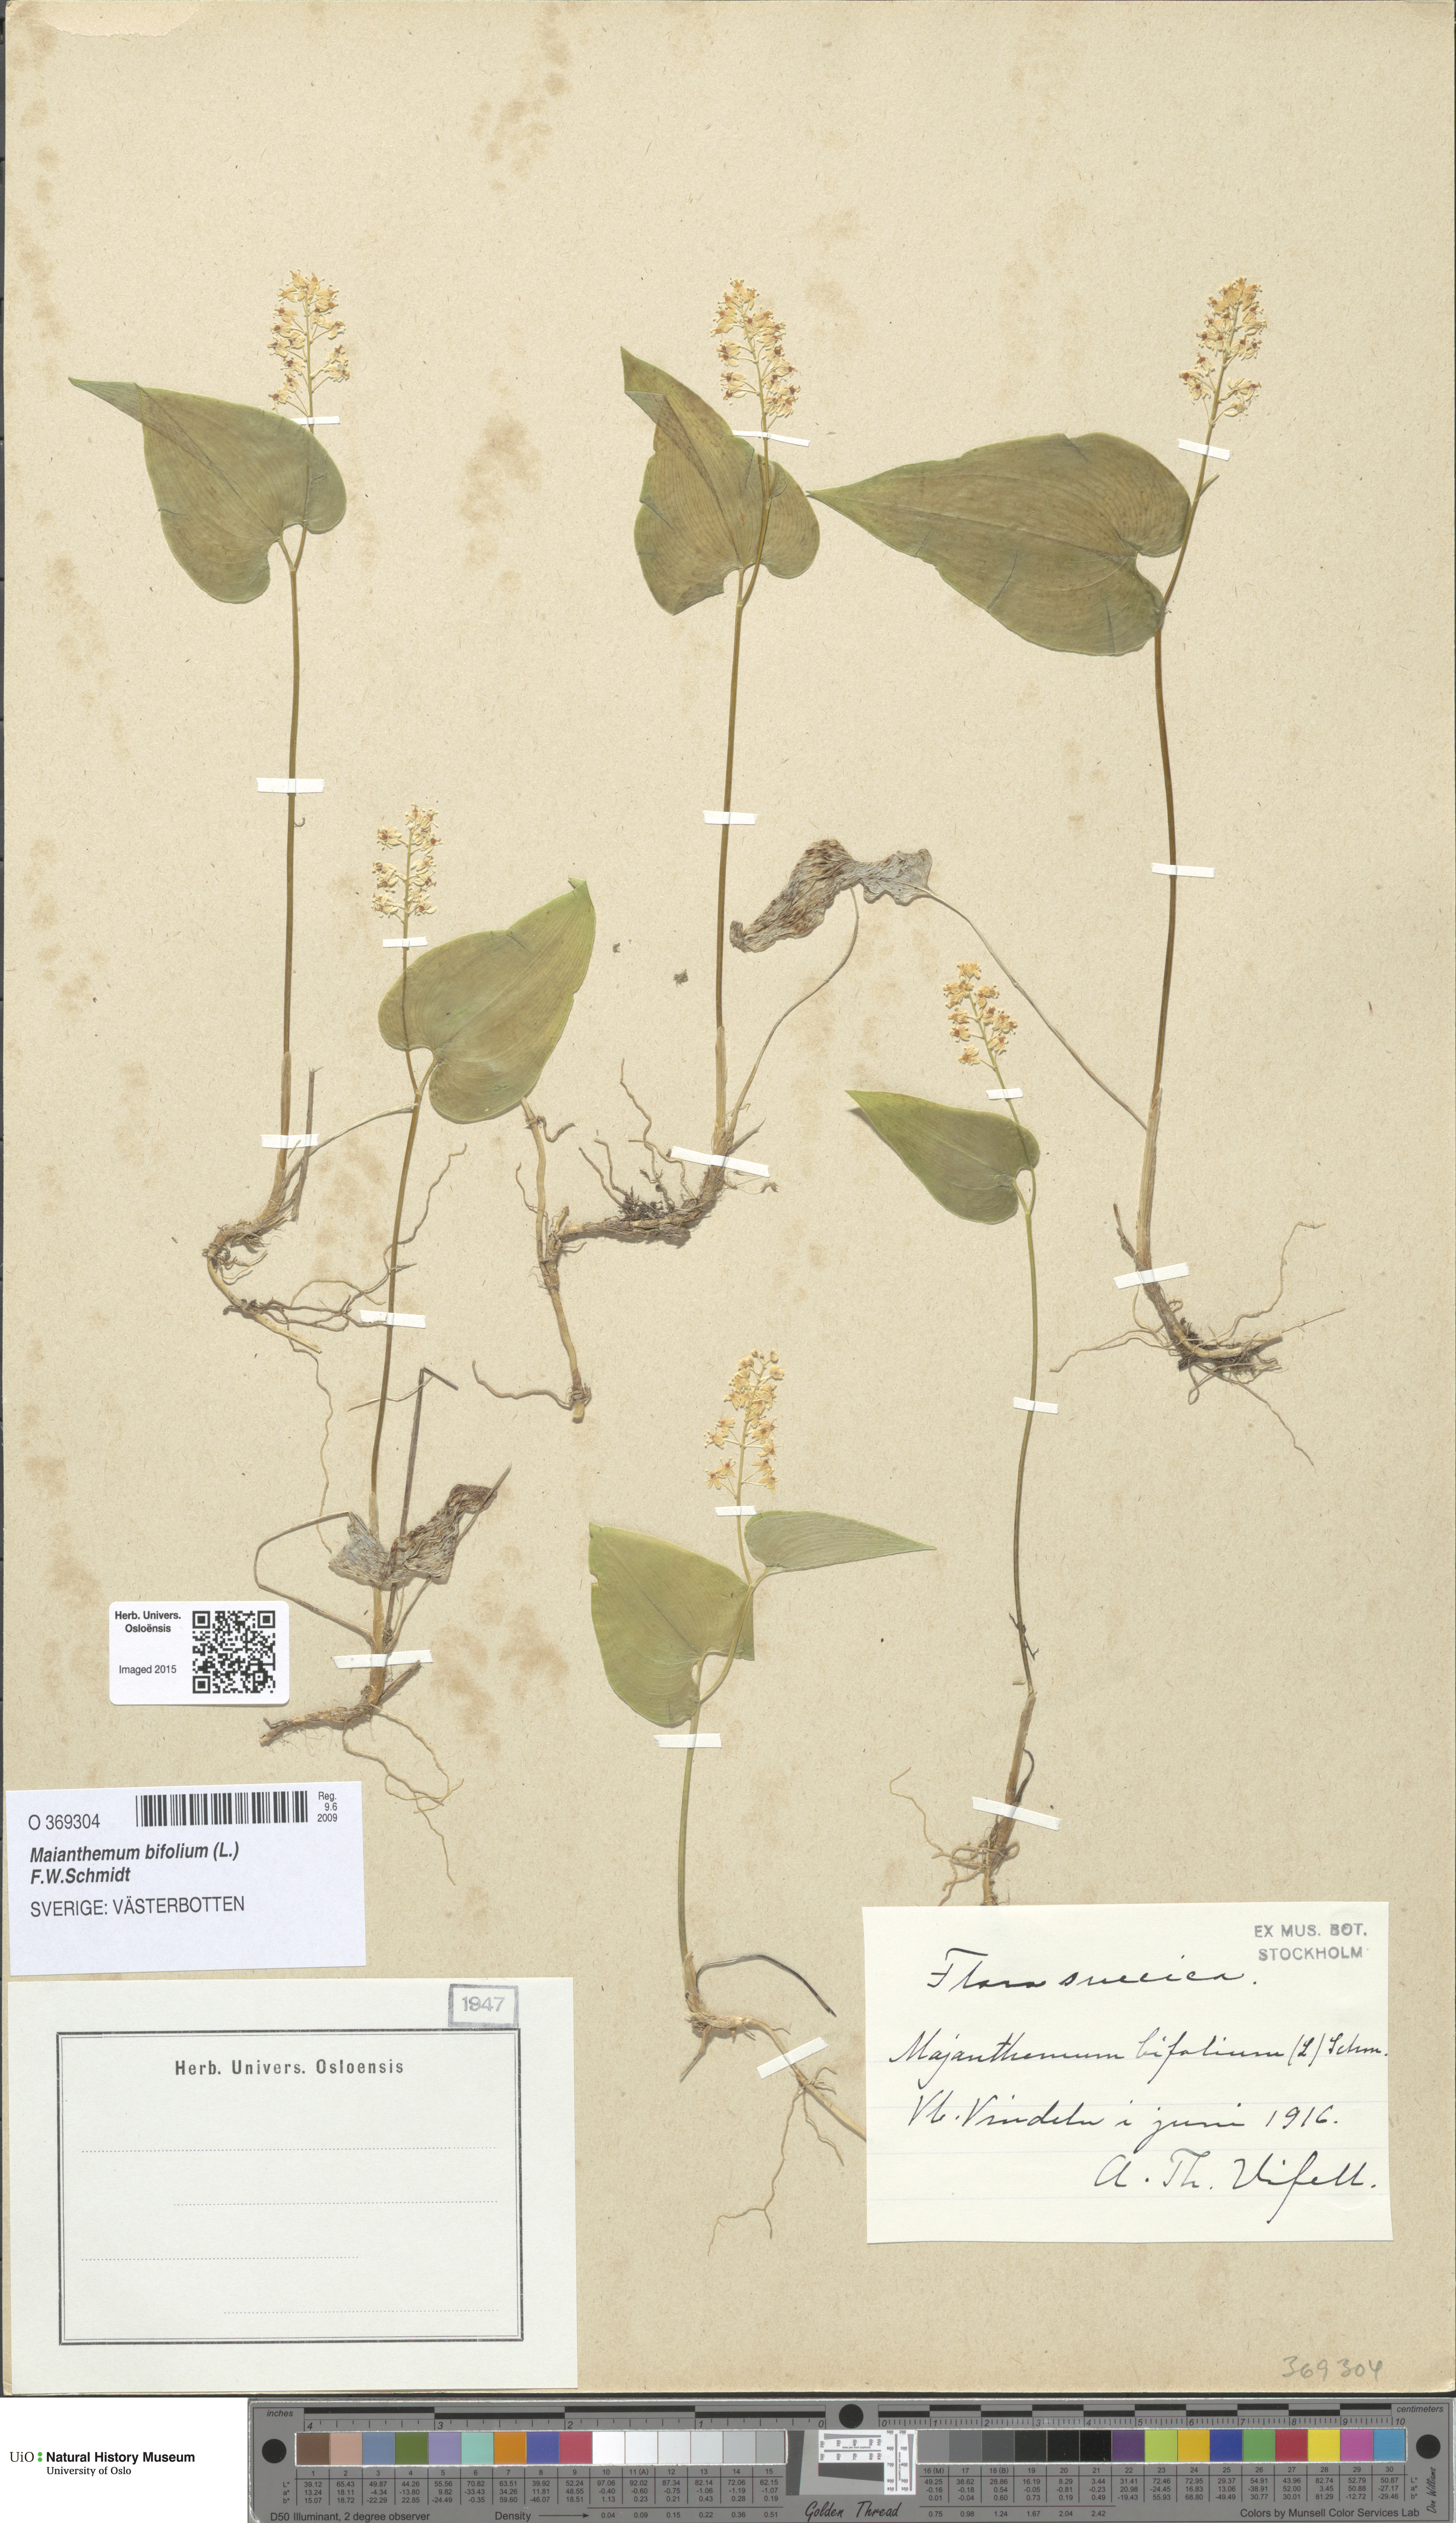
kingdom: Plantae
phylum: Tracheophyta
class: Liliopsida
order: Asparagales
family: Asparagaceae
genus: Maianthemum
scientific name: Maianthemum bifolium
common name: May lily
